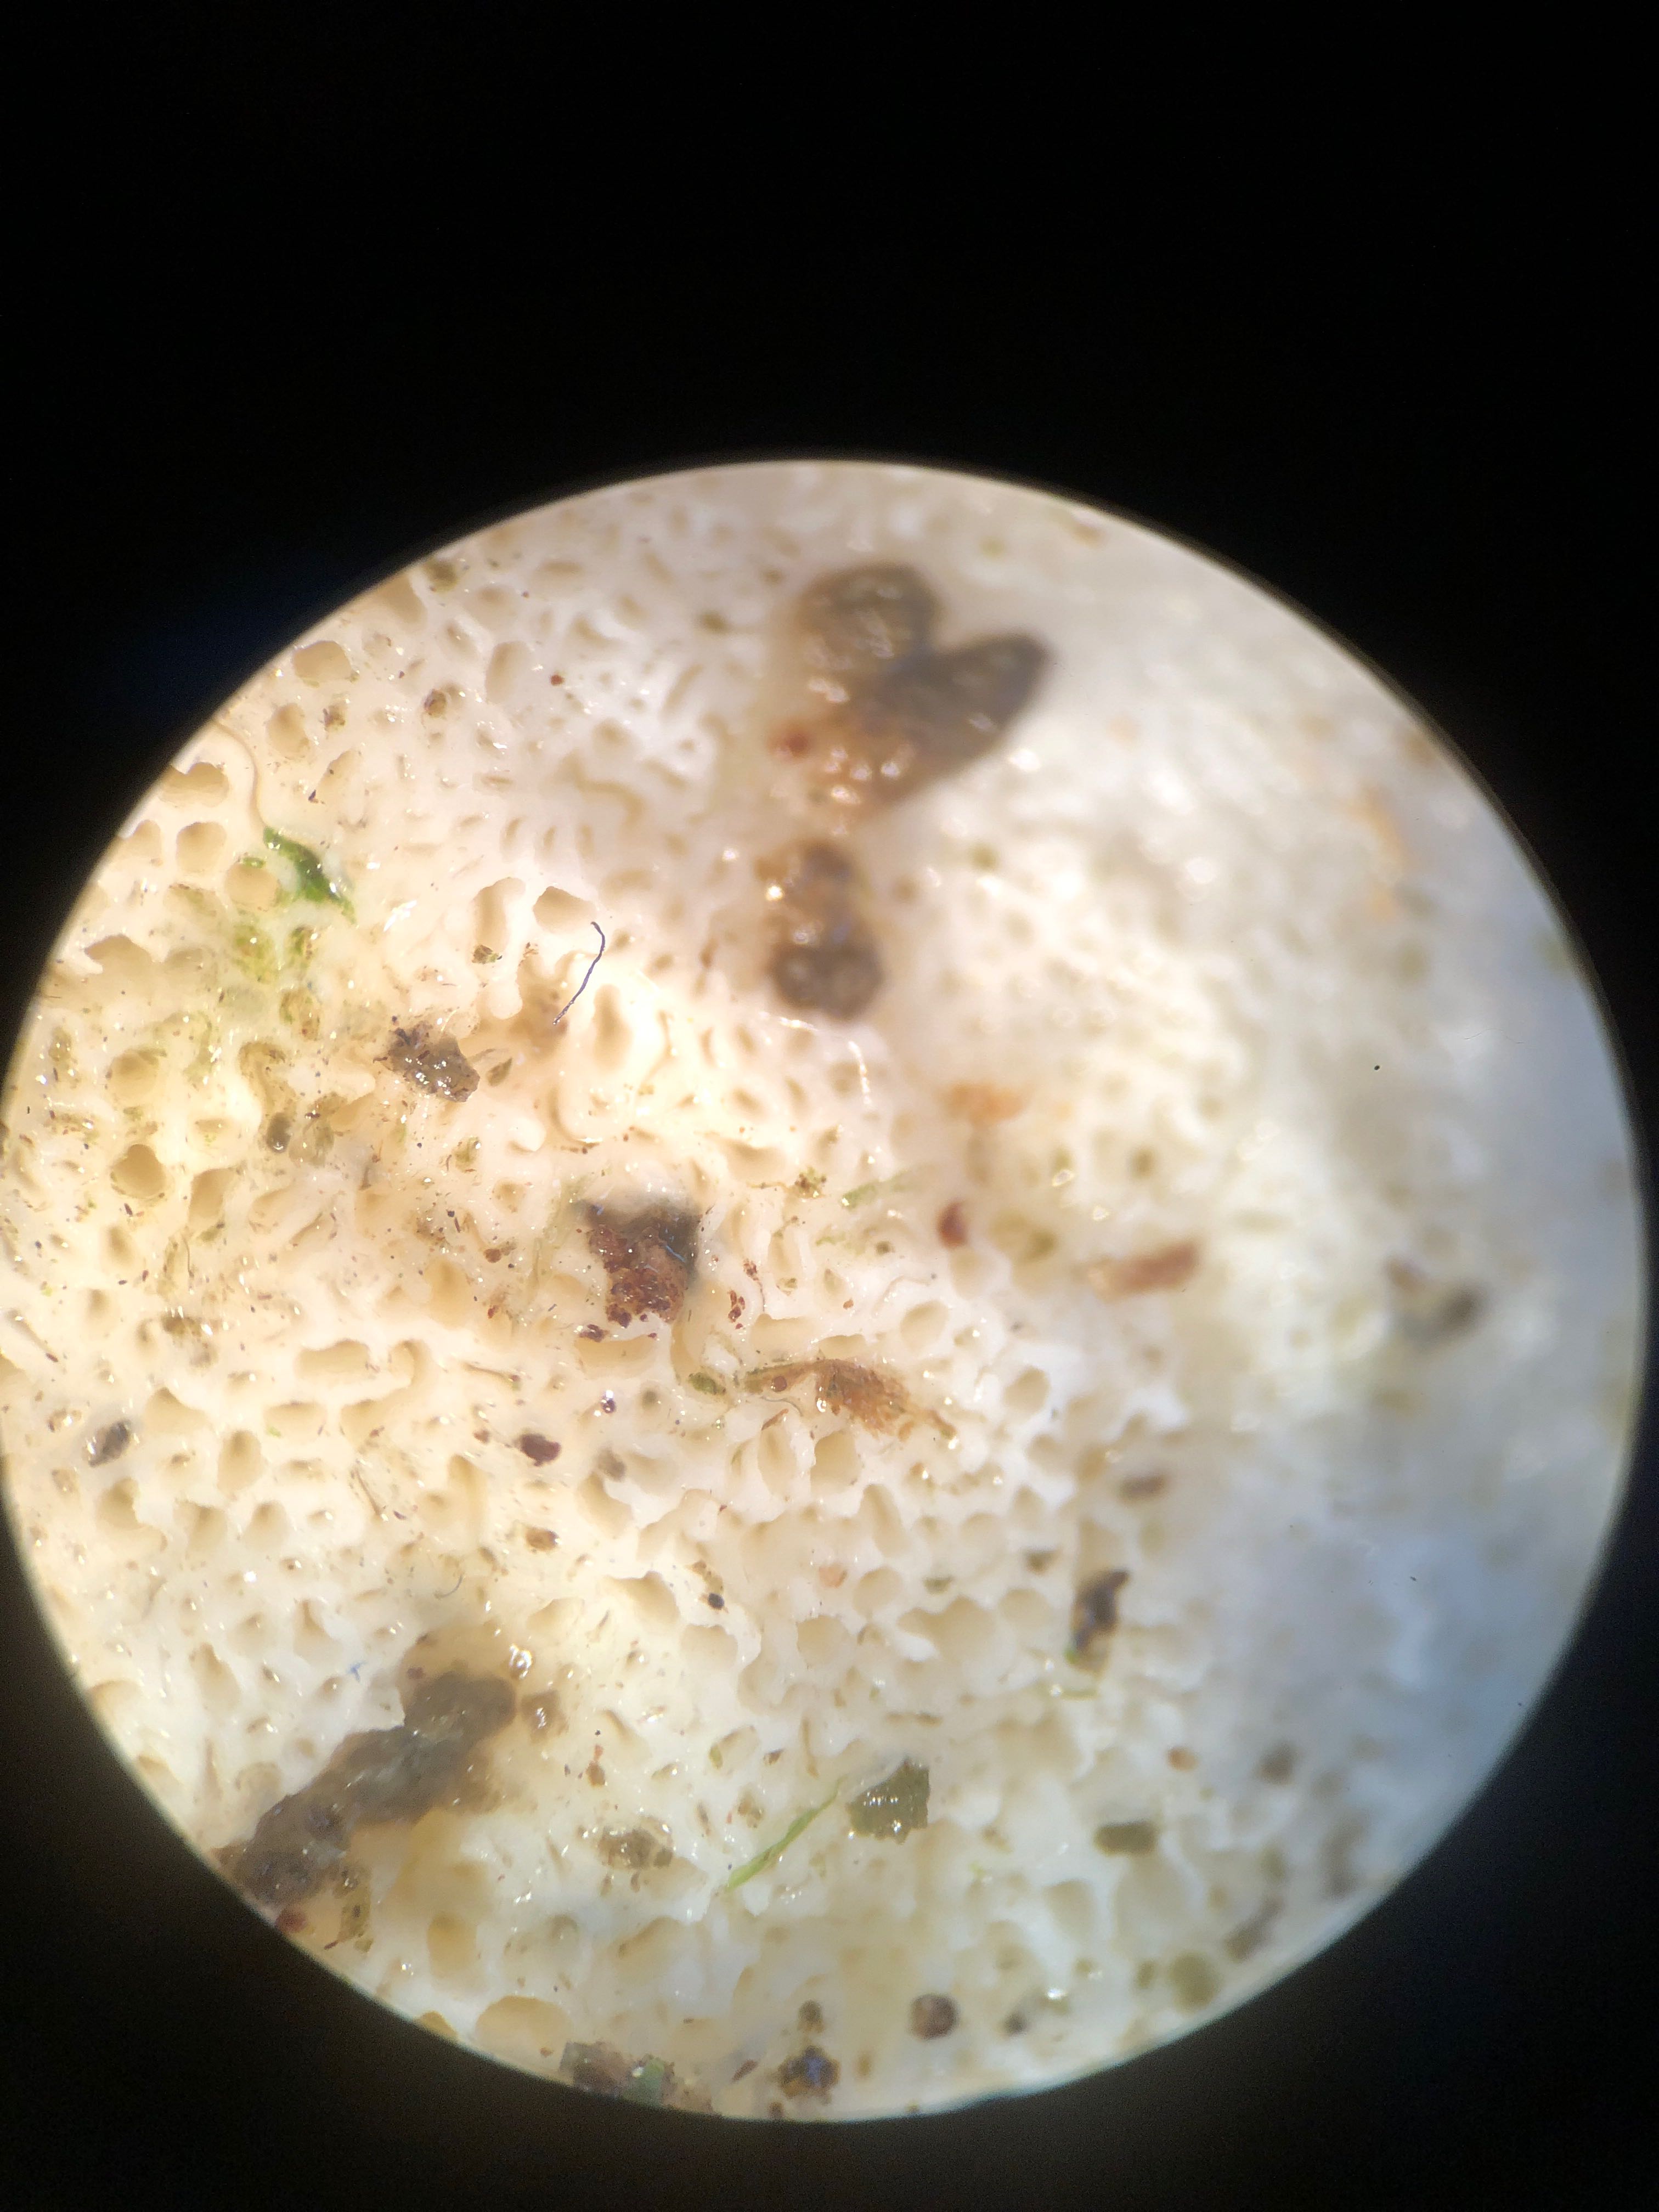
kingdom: Fungi
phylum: Basidiomycota
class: Agaricomycetes
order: Polyporales
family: Incrustoporiaceae
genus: Tyromyces
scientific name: Tyromyces lacteus
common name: mælkehvid kødporesvamp
